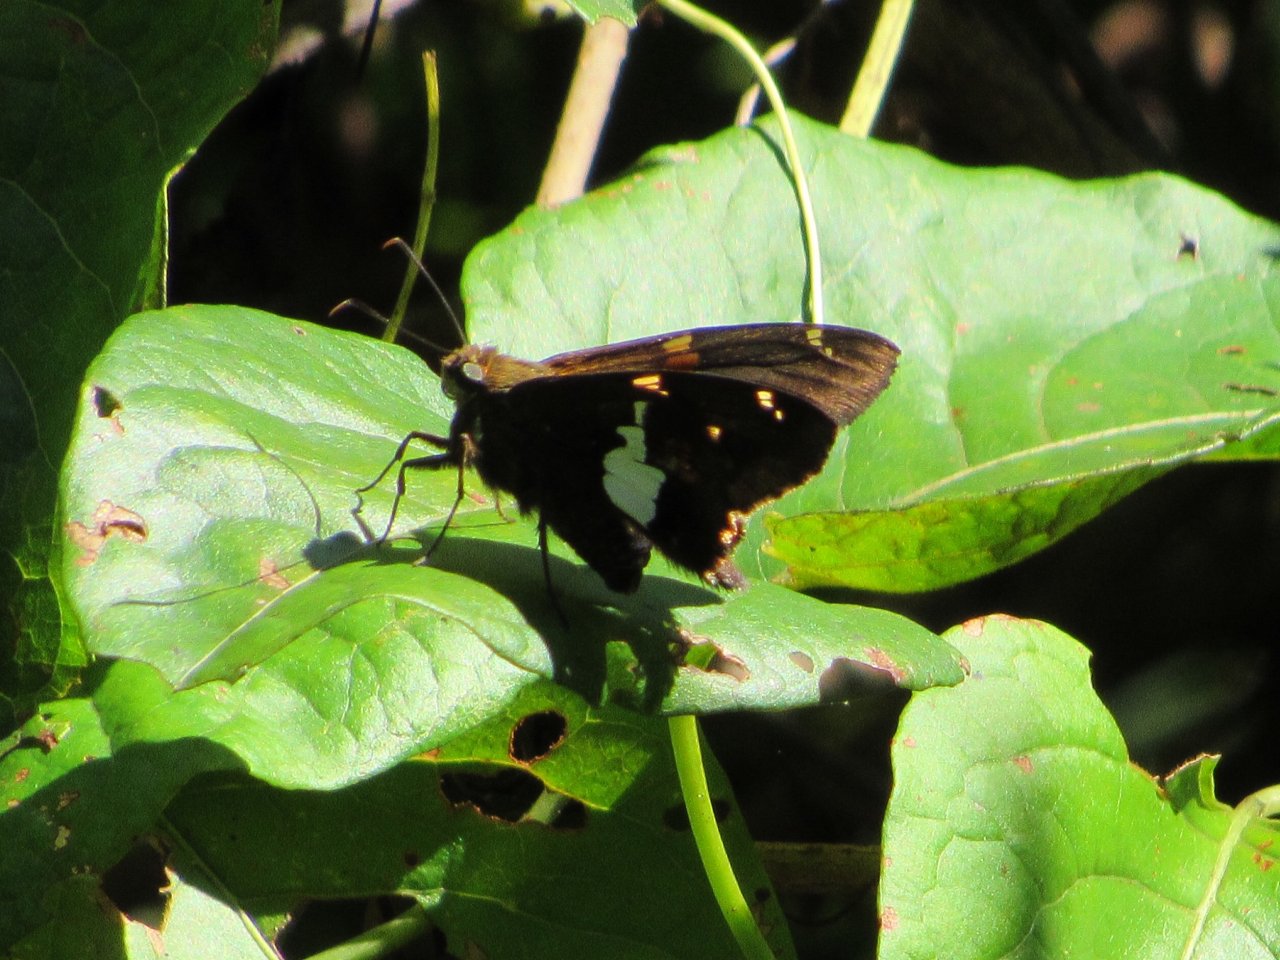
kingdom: Animalia
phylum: Arthropoda
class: Insecta
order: Lepidoptera
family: Hesperiidae
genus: Epargyreus
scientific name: Epargyreus clarus
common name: Silver-spotted Skipper
